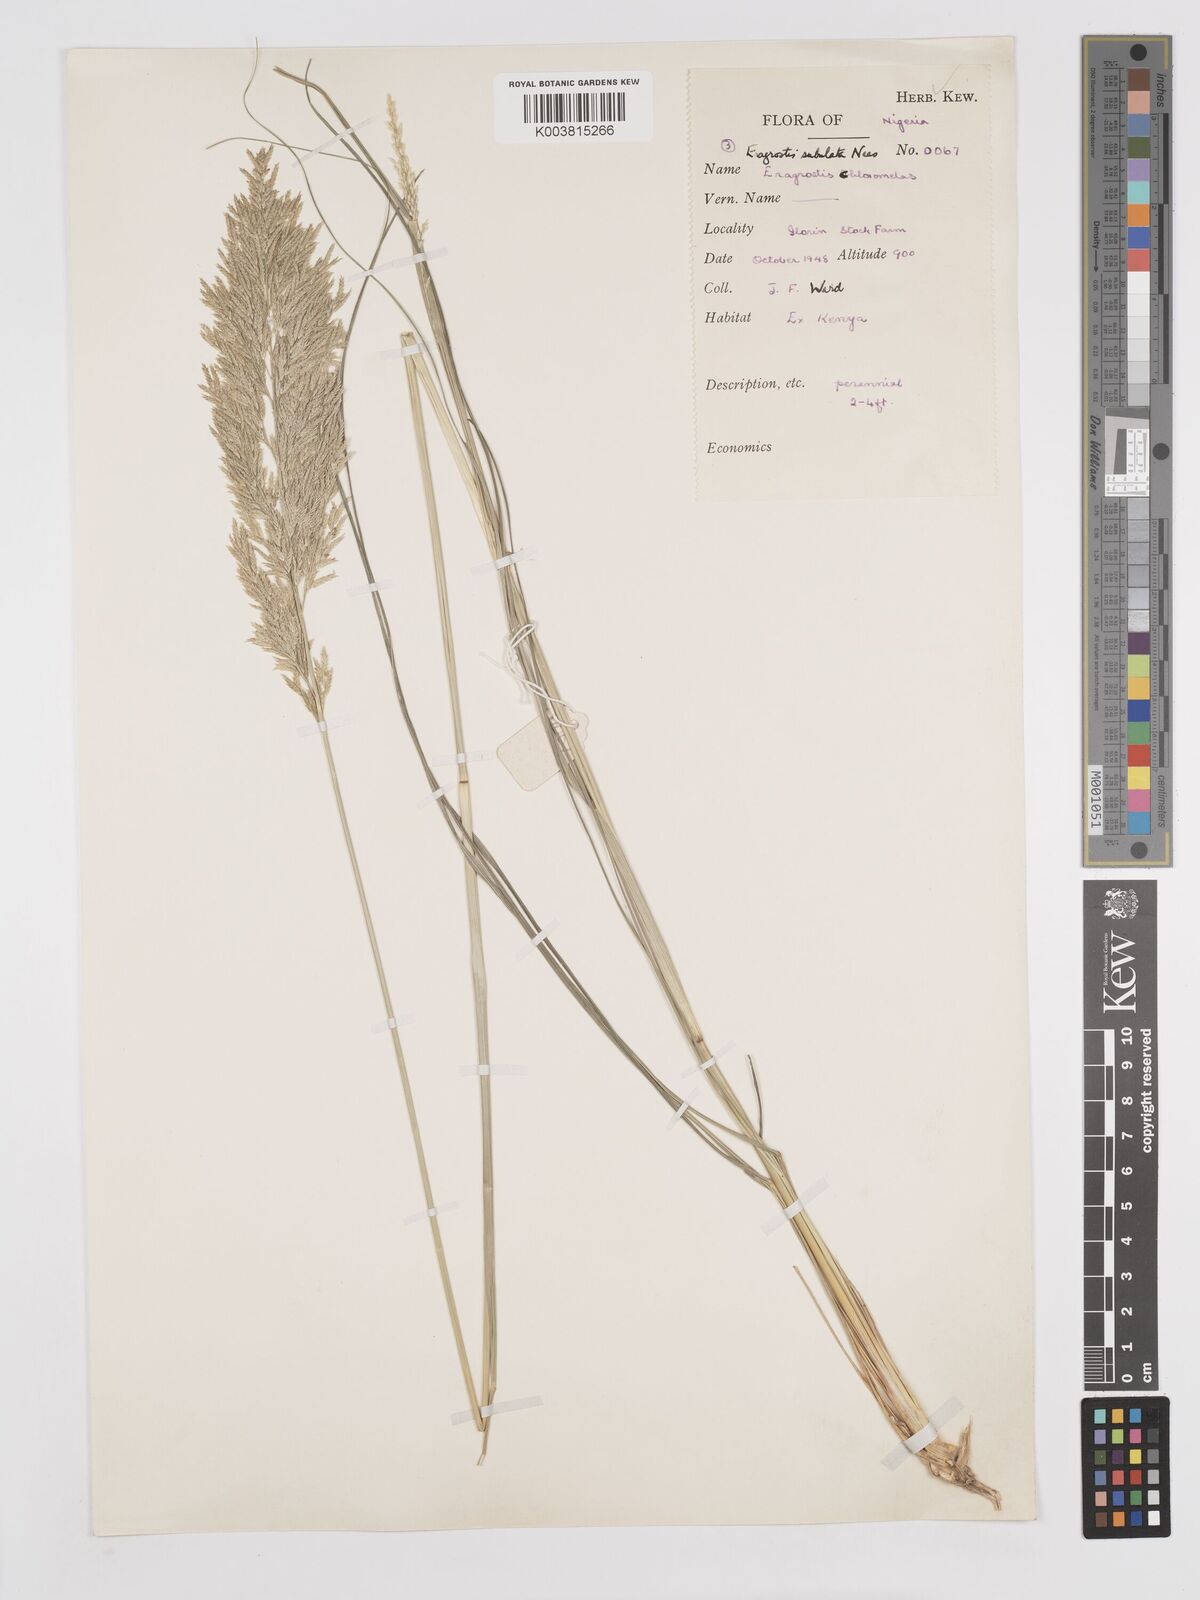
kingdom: Plantae
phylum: Tracheophyta
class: Liliopsida
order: Poales
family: Poaceae
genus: Eragrostis
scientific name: Eragrostis curvula
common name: African love-grass
